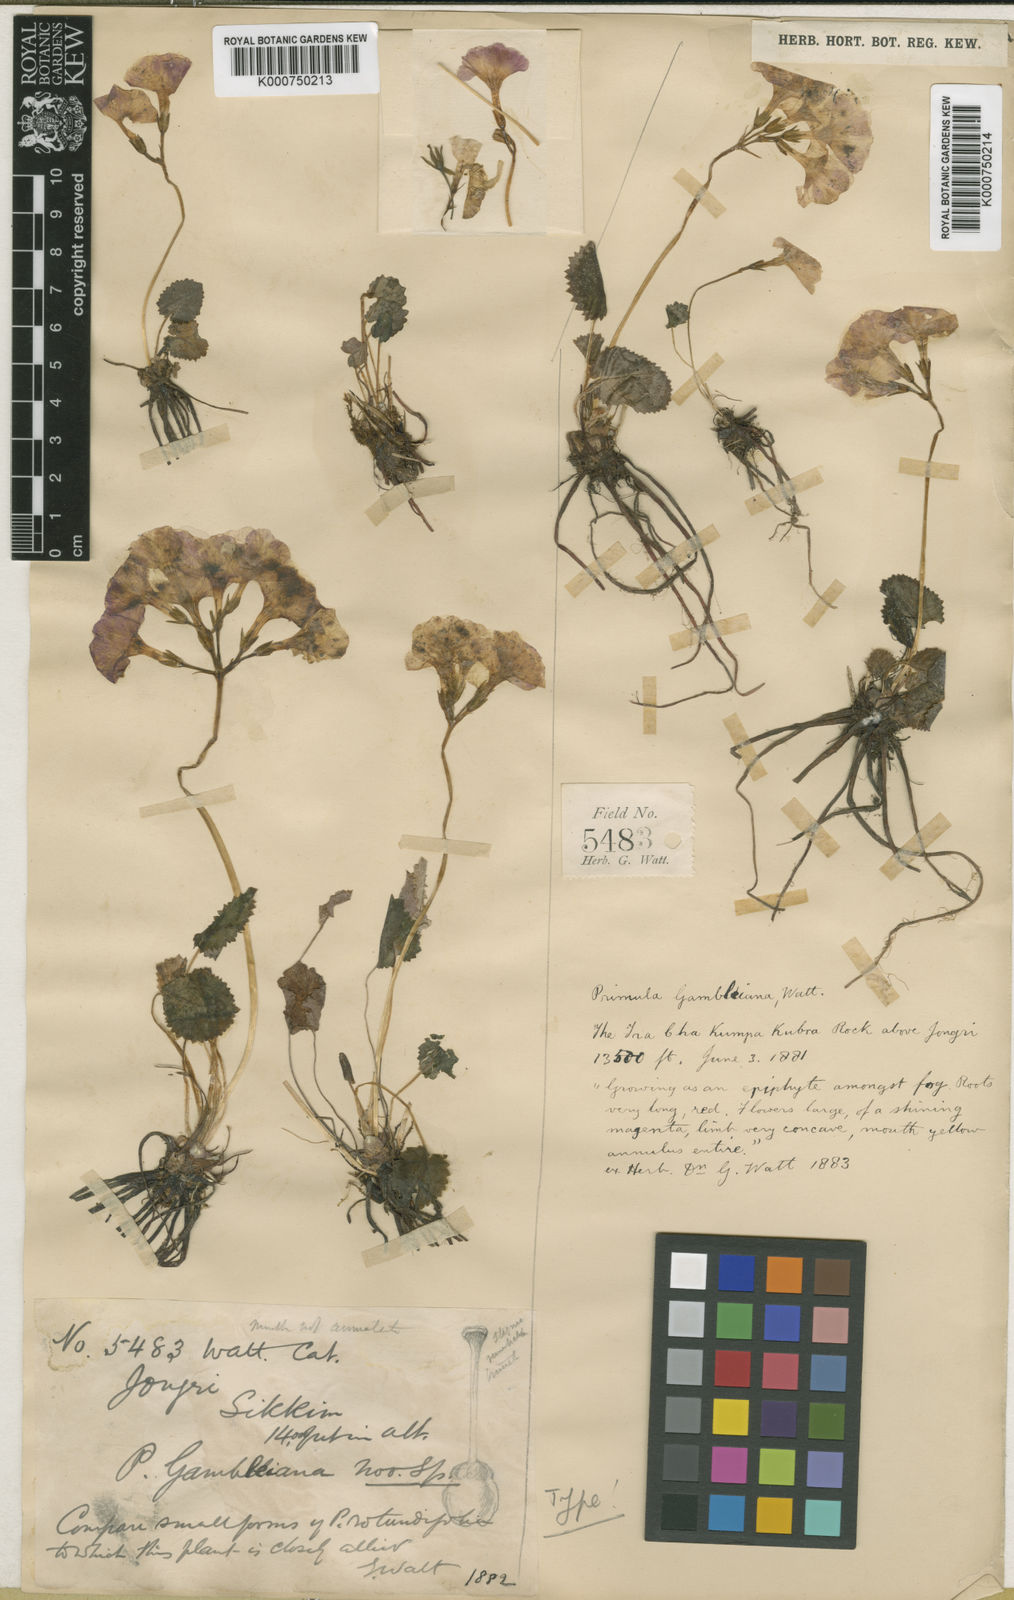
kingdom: Plantae
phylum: Tracheophyta
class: Magnoliopsida
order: Ericales
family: Primulaceae
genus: Primula
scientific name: Primula gambeliana
